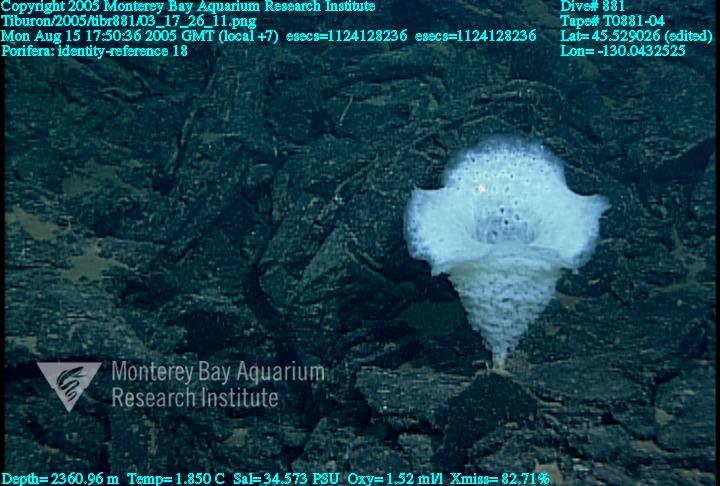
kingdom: Animalia
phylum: Porifera
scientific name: Porifera
